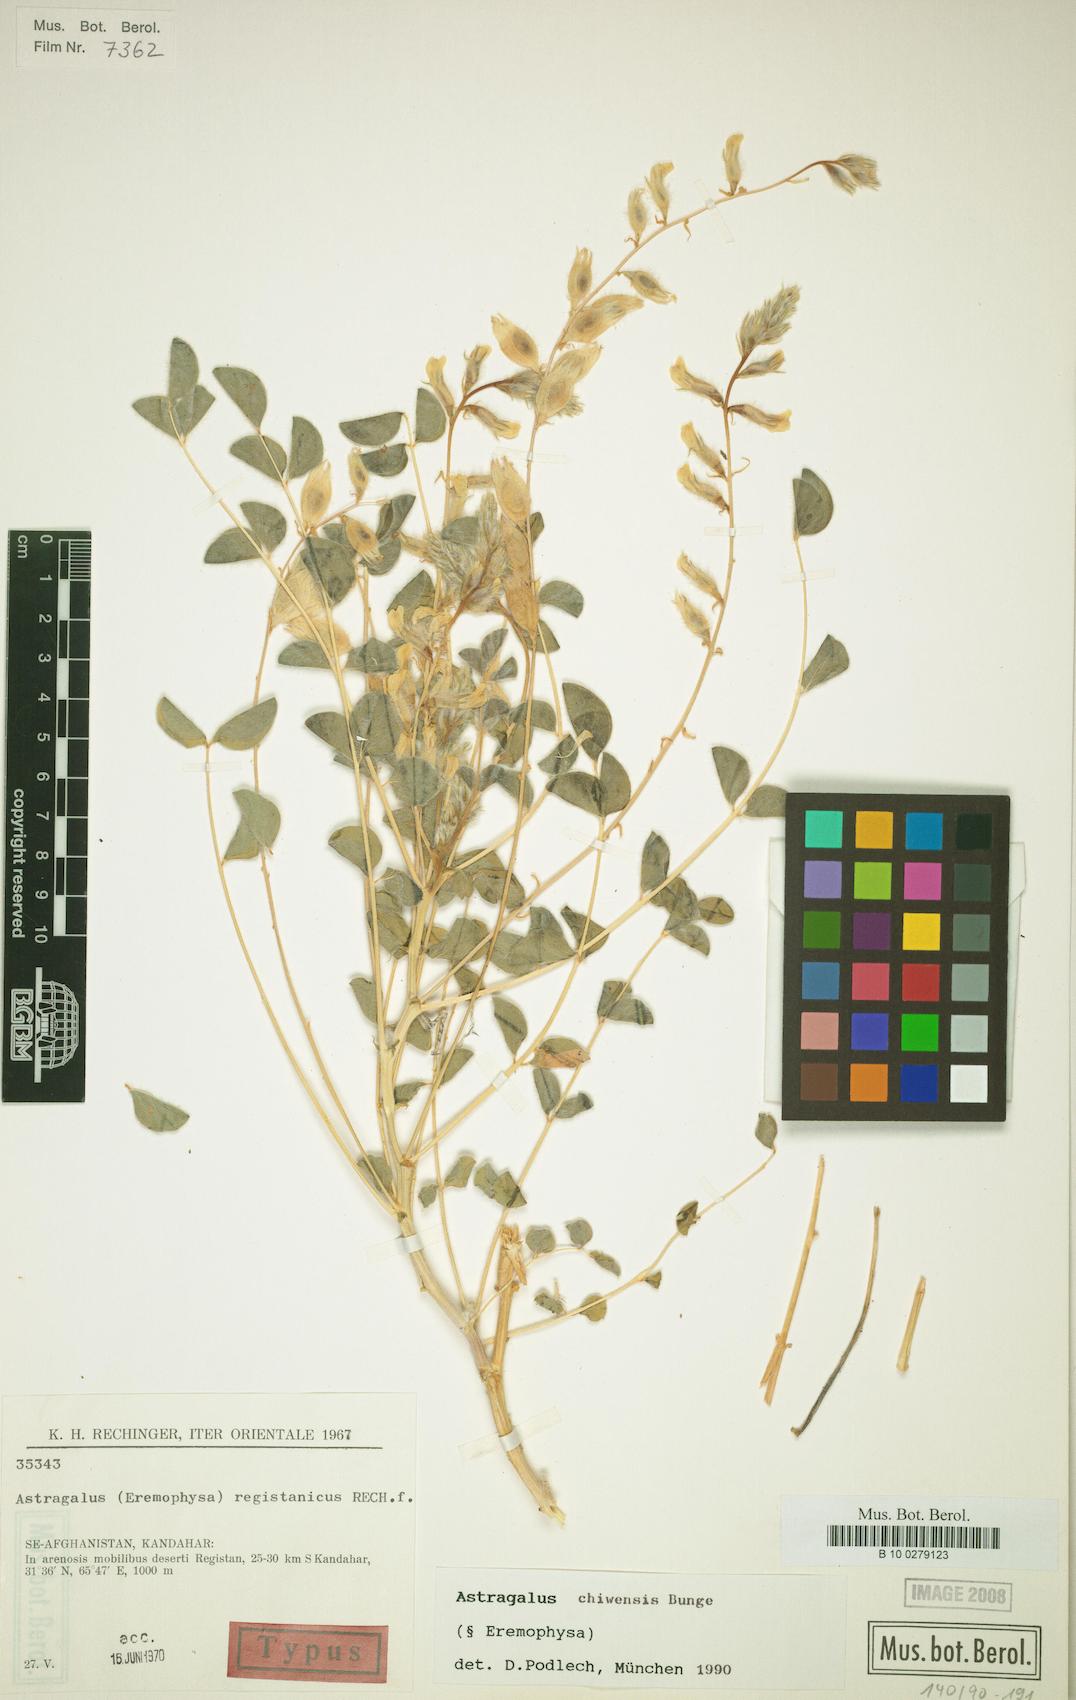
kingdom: Plantae
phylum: Tracheophyta
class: Magnoliopsida
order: Fabales
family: Fabaceae
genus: Astragalus
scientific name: Astragalus chiwensis
